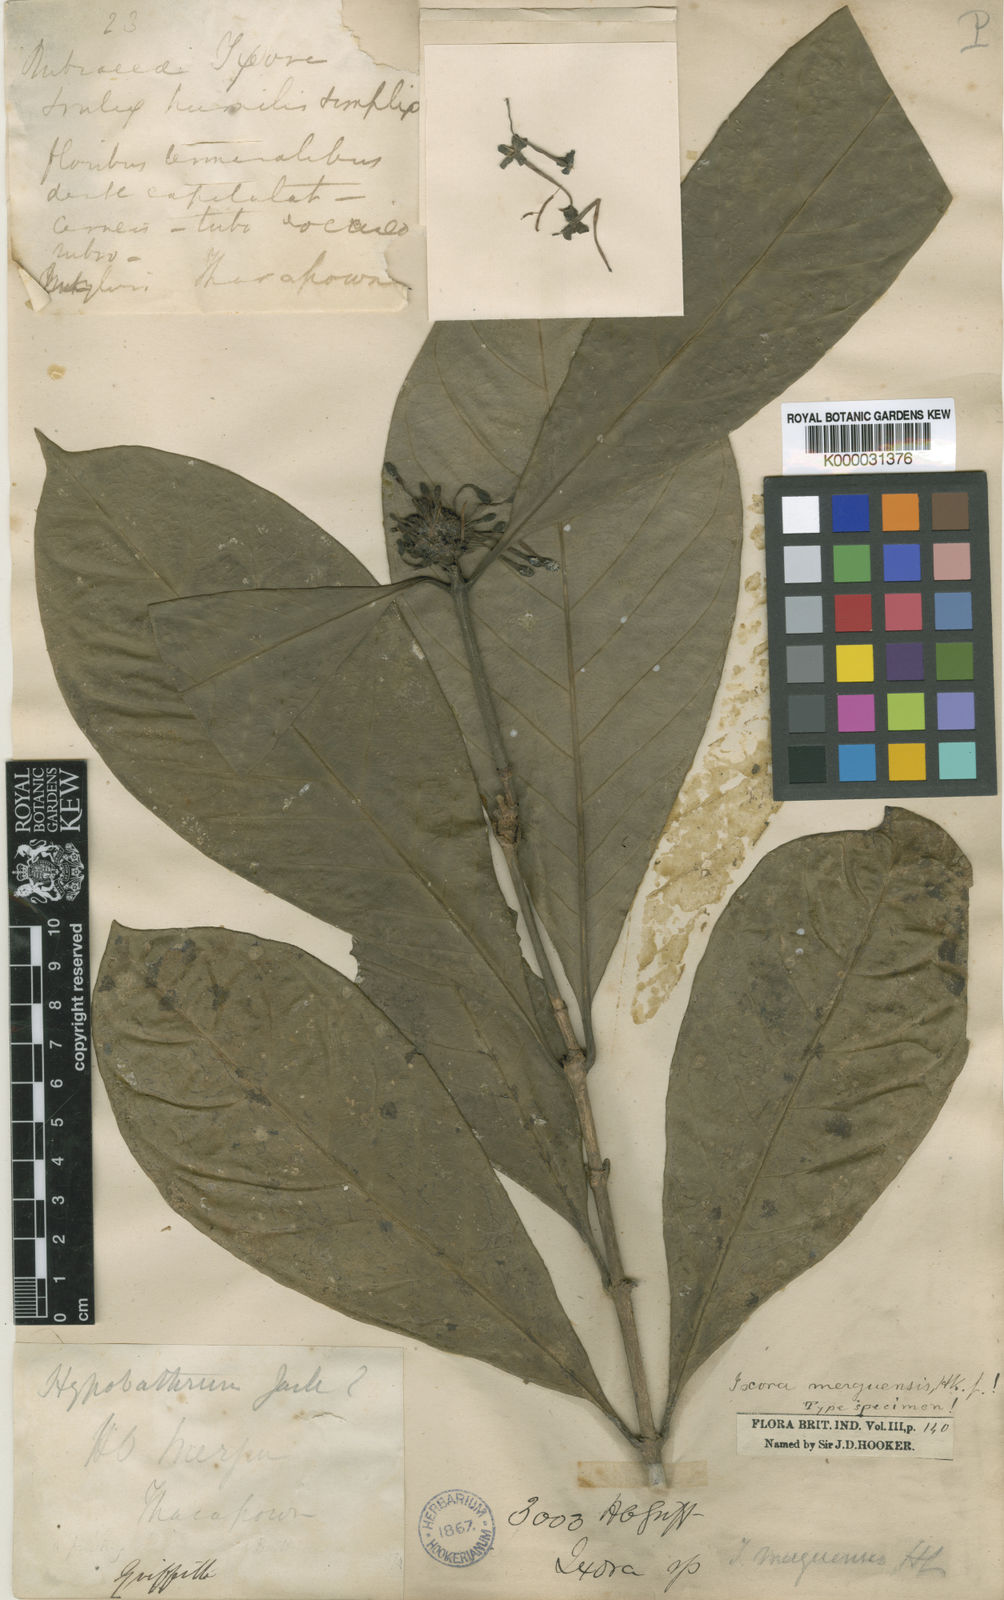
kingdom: Plantae
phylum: Tracheophyta
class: Magnoliopsida
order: Gentianales
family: Rubiaceae
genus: Ixora
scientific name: Ixora merguensis
